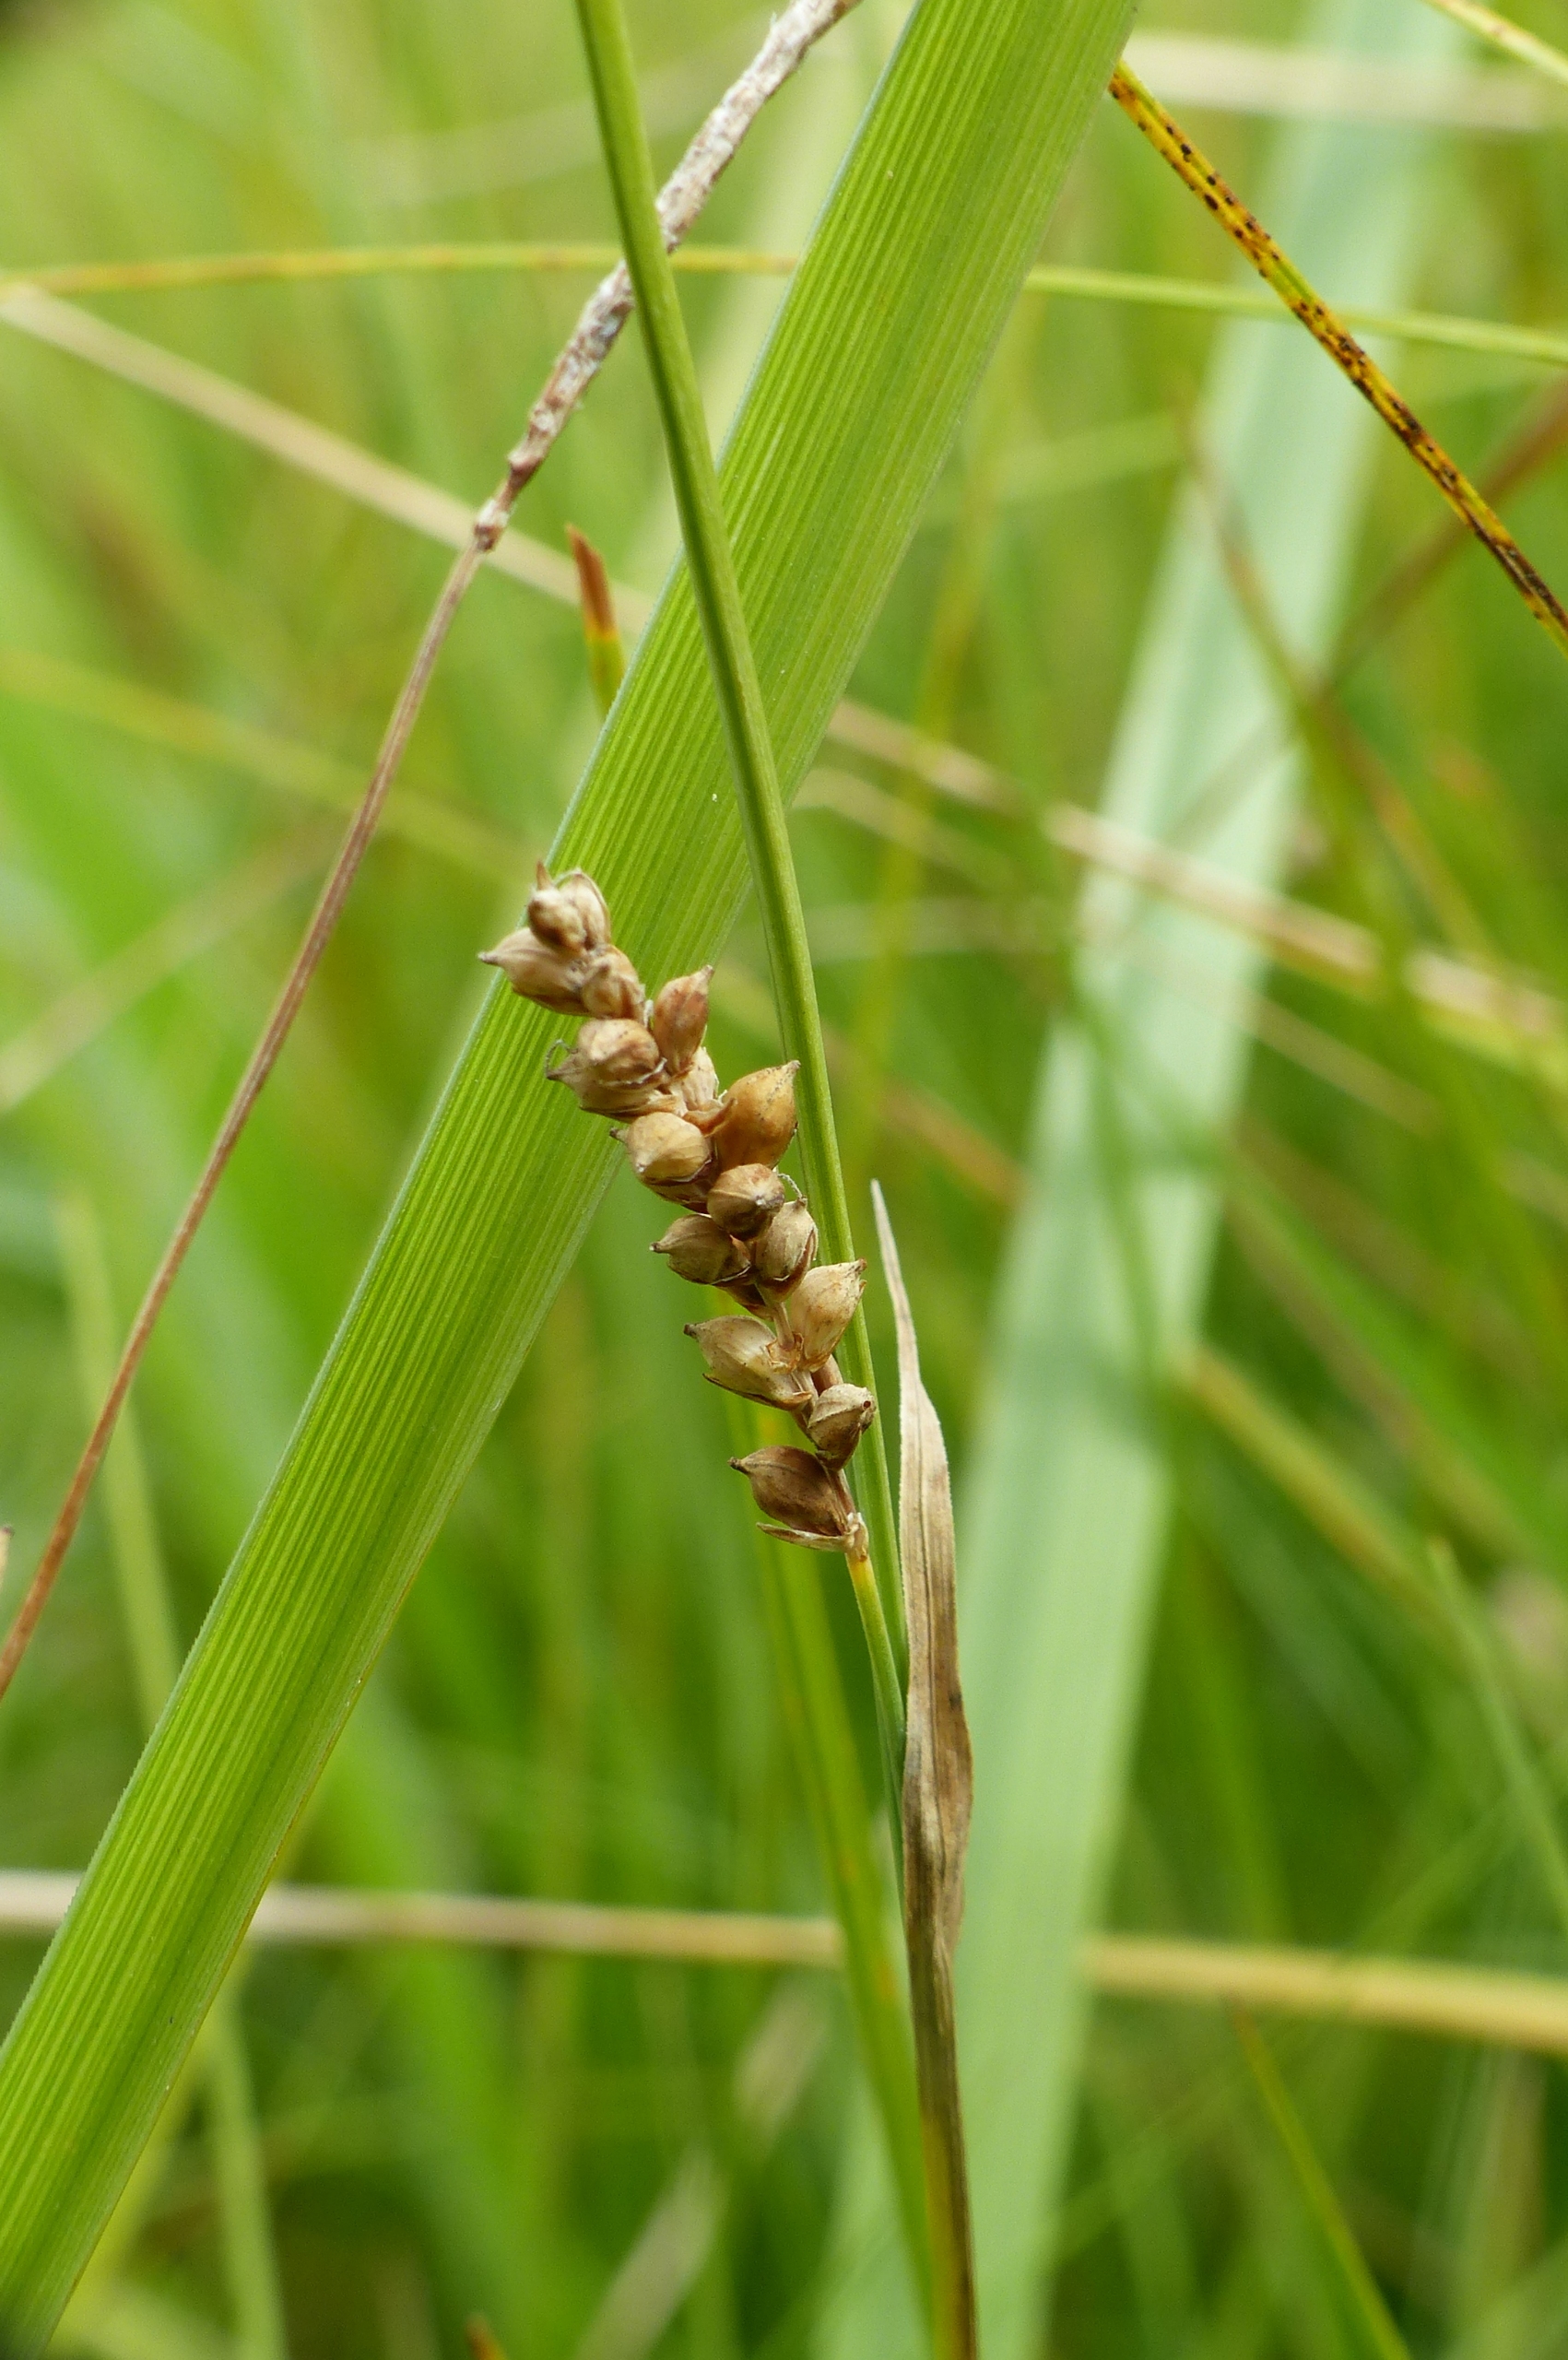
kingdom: Plantae
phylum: Tracheophyta
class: Liliopsida
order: Poales
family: Cyperaceae
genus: Carex
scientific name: Carex panicea
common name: Hirse-star
